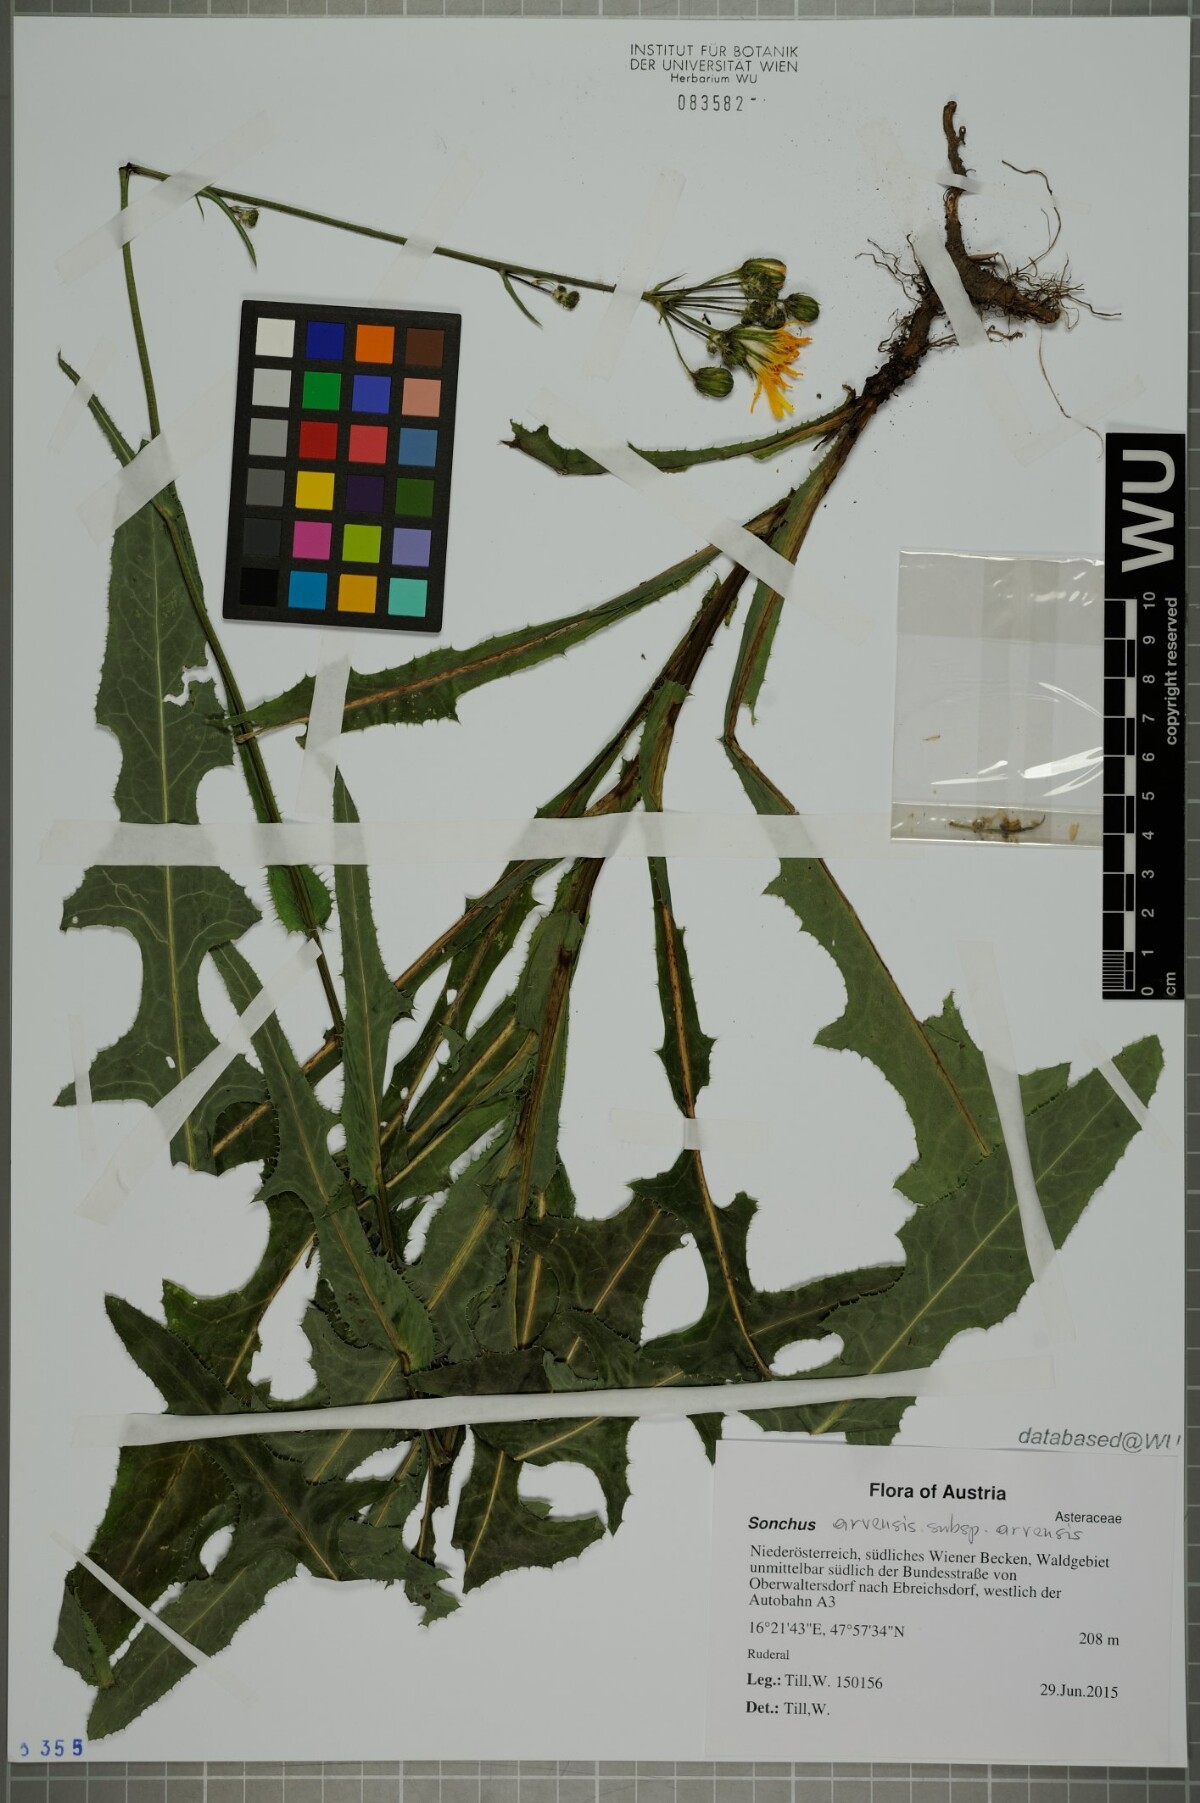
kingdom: Plantae
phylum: Tracheophyta
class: Magnoliopsida
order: Asterales
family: Asteraceae
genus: Sonchus
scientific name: Sonchus arvensis
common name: Perennial sow-thistle
